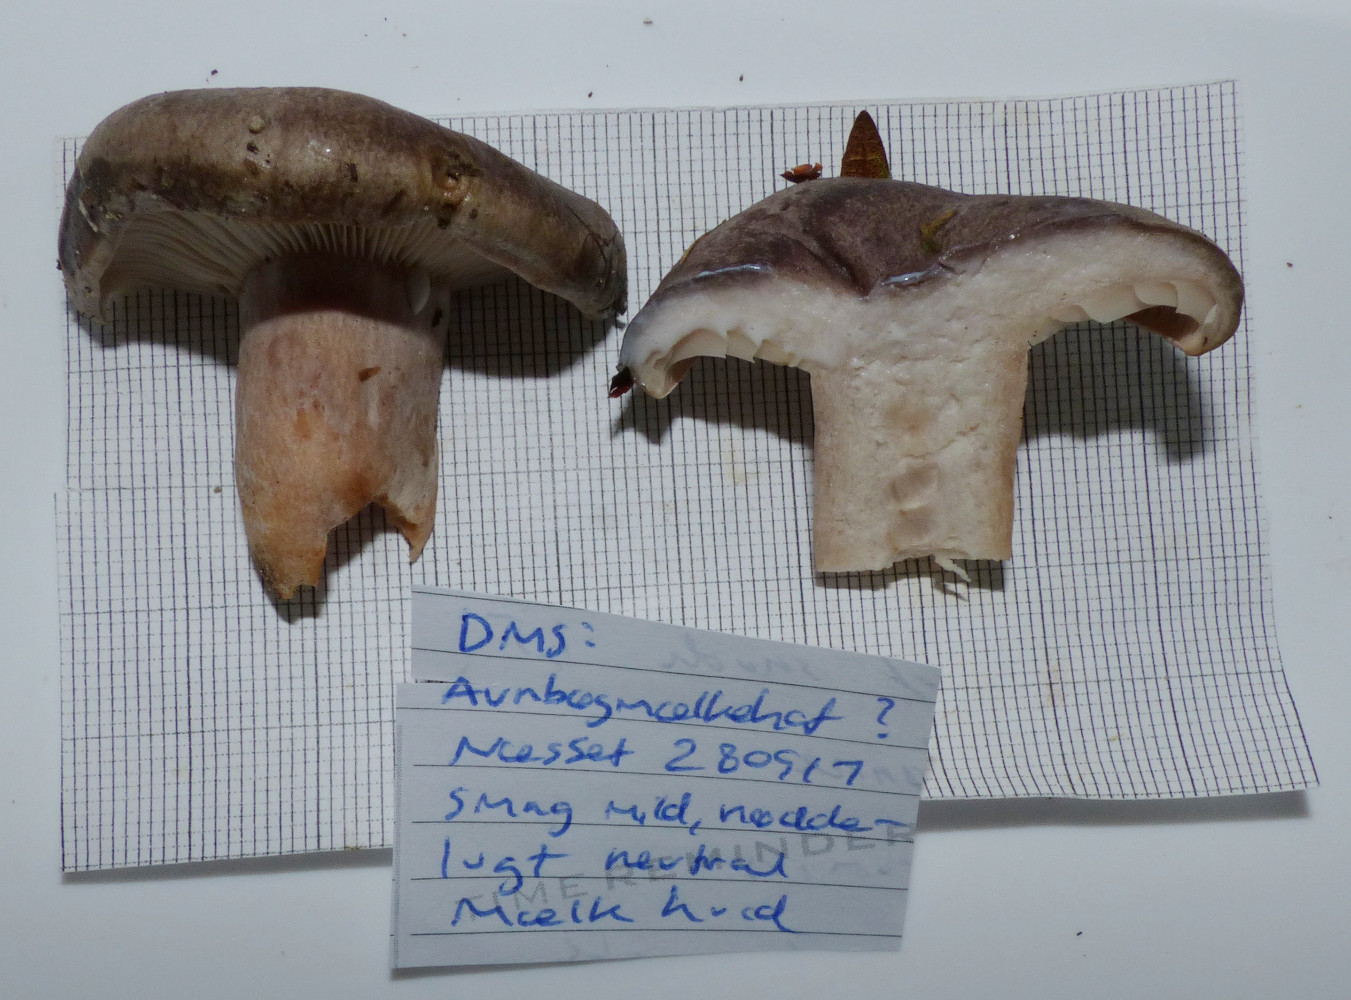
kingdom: Fungi
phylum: Basidiomycota
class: Agaricomycetes
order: Russulales
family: Russulaceae
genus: Lactarius
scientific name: Lactarius circellatus
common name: avnbøg-mælkehat
